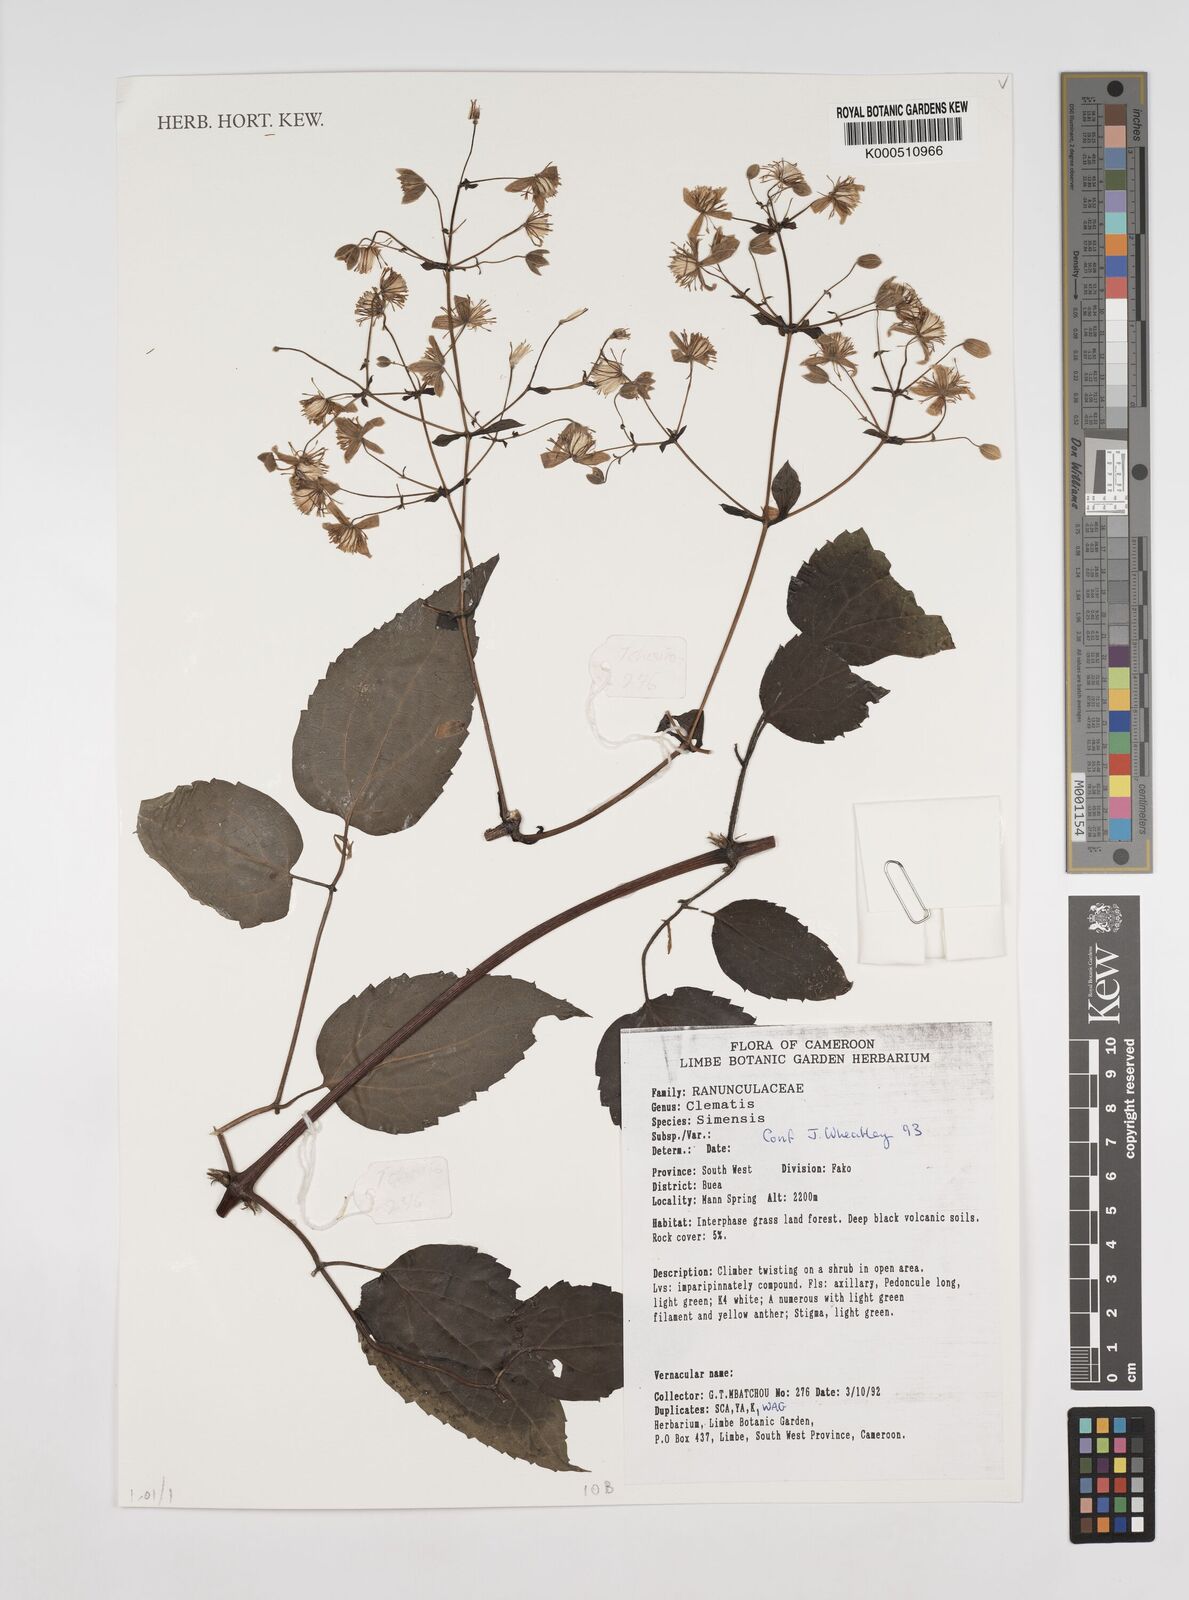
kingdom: Plantae
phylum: Tracheophyta
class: Magnoliopsida
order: Ranunculales
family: Ranunculaceae
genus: Clematis
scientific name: Clematis simensis
